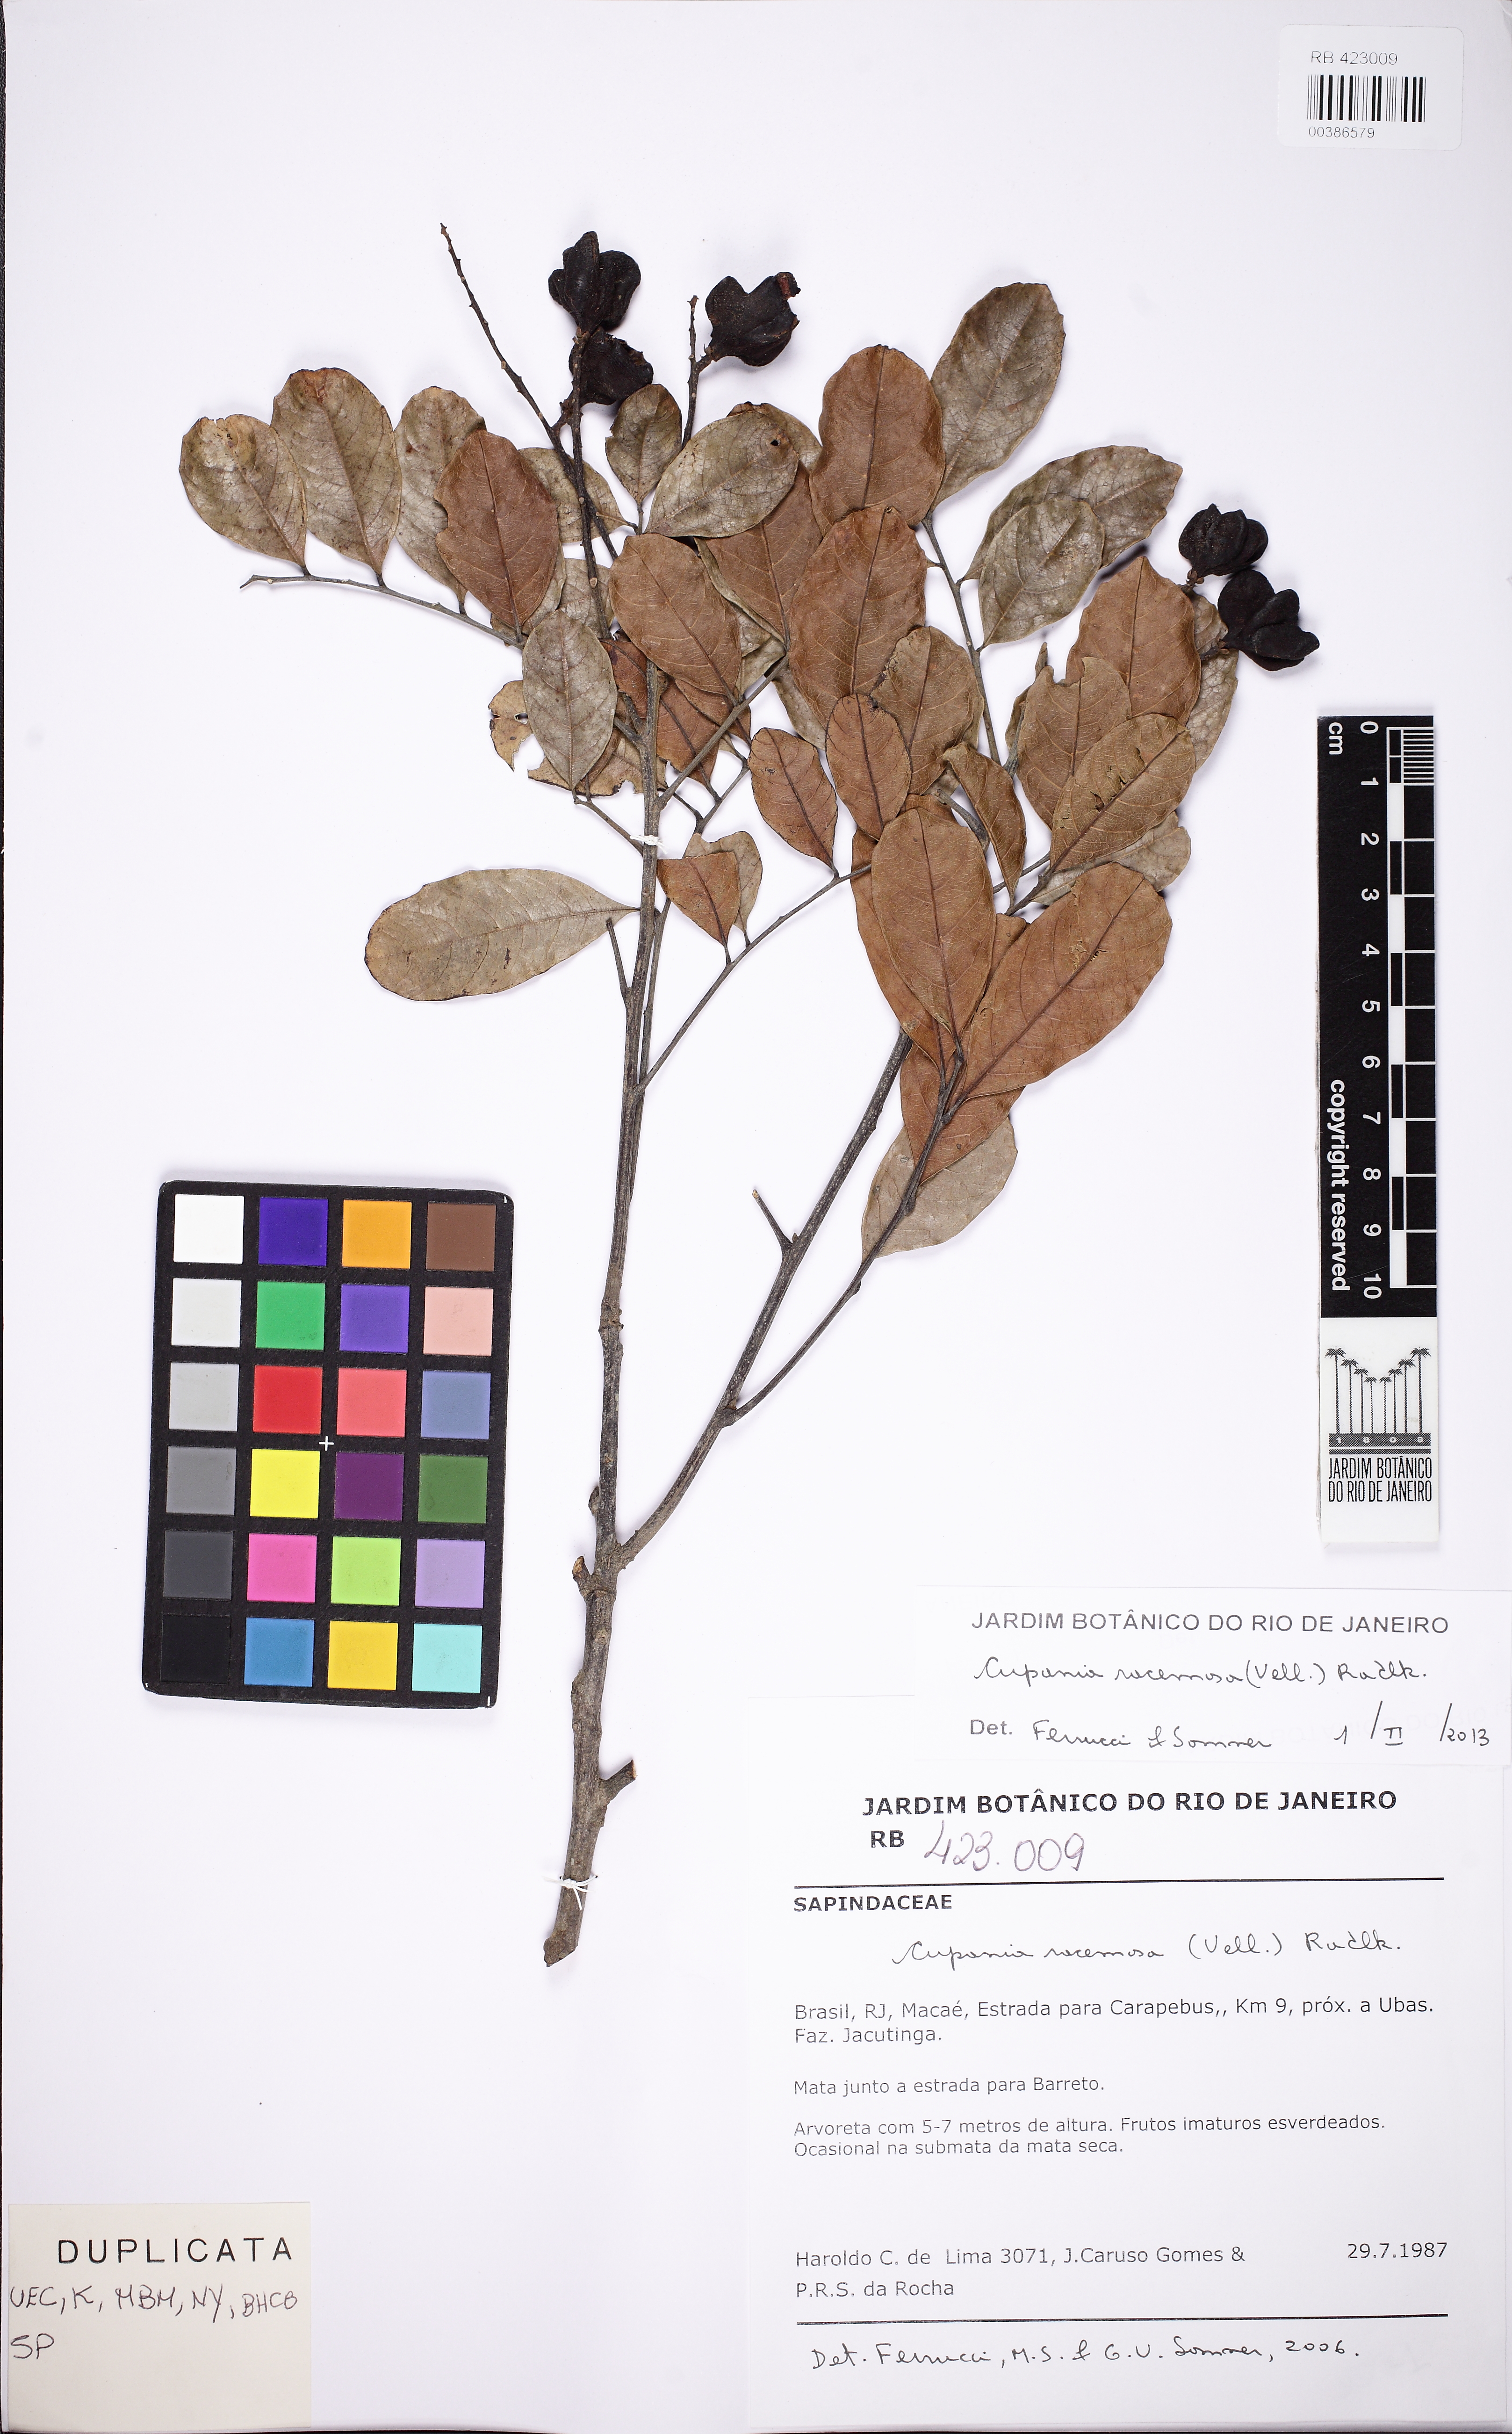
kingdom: Plantae
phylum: Tracheophyta
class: Magnoliopsida
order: Sapindales
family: Sapindaceae
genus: Cupania
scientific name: Cupania ludowigii
